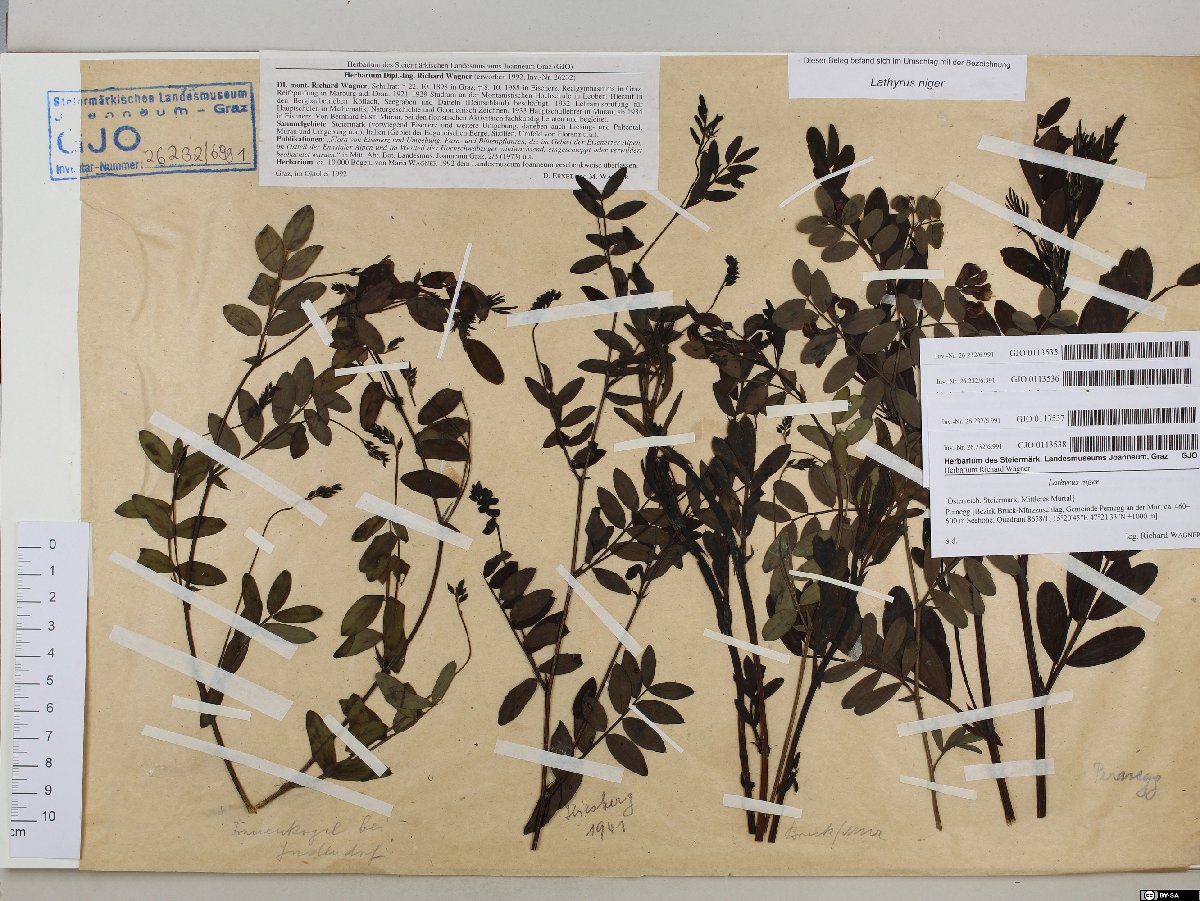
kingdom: Plantae
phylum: Tracheophyta
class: Magnoliopsida
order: Fabales
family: Fabaceae
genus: Lathyrus
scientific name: Lathyrus niger
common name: Black pea
